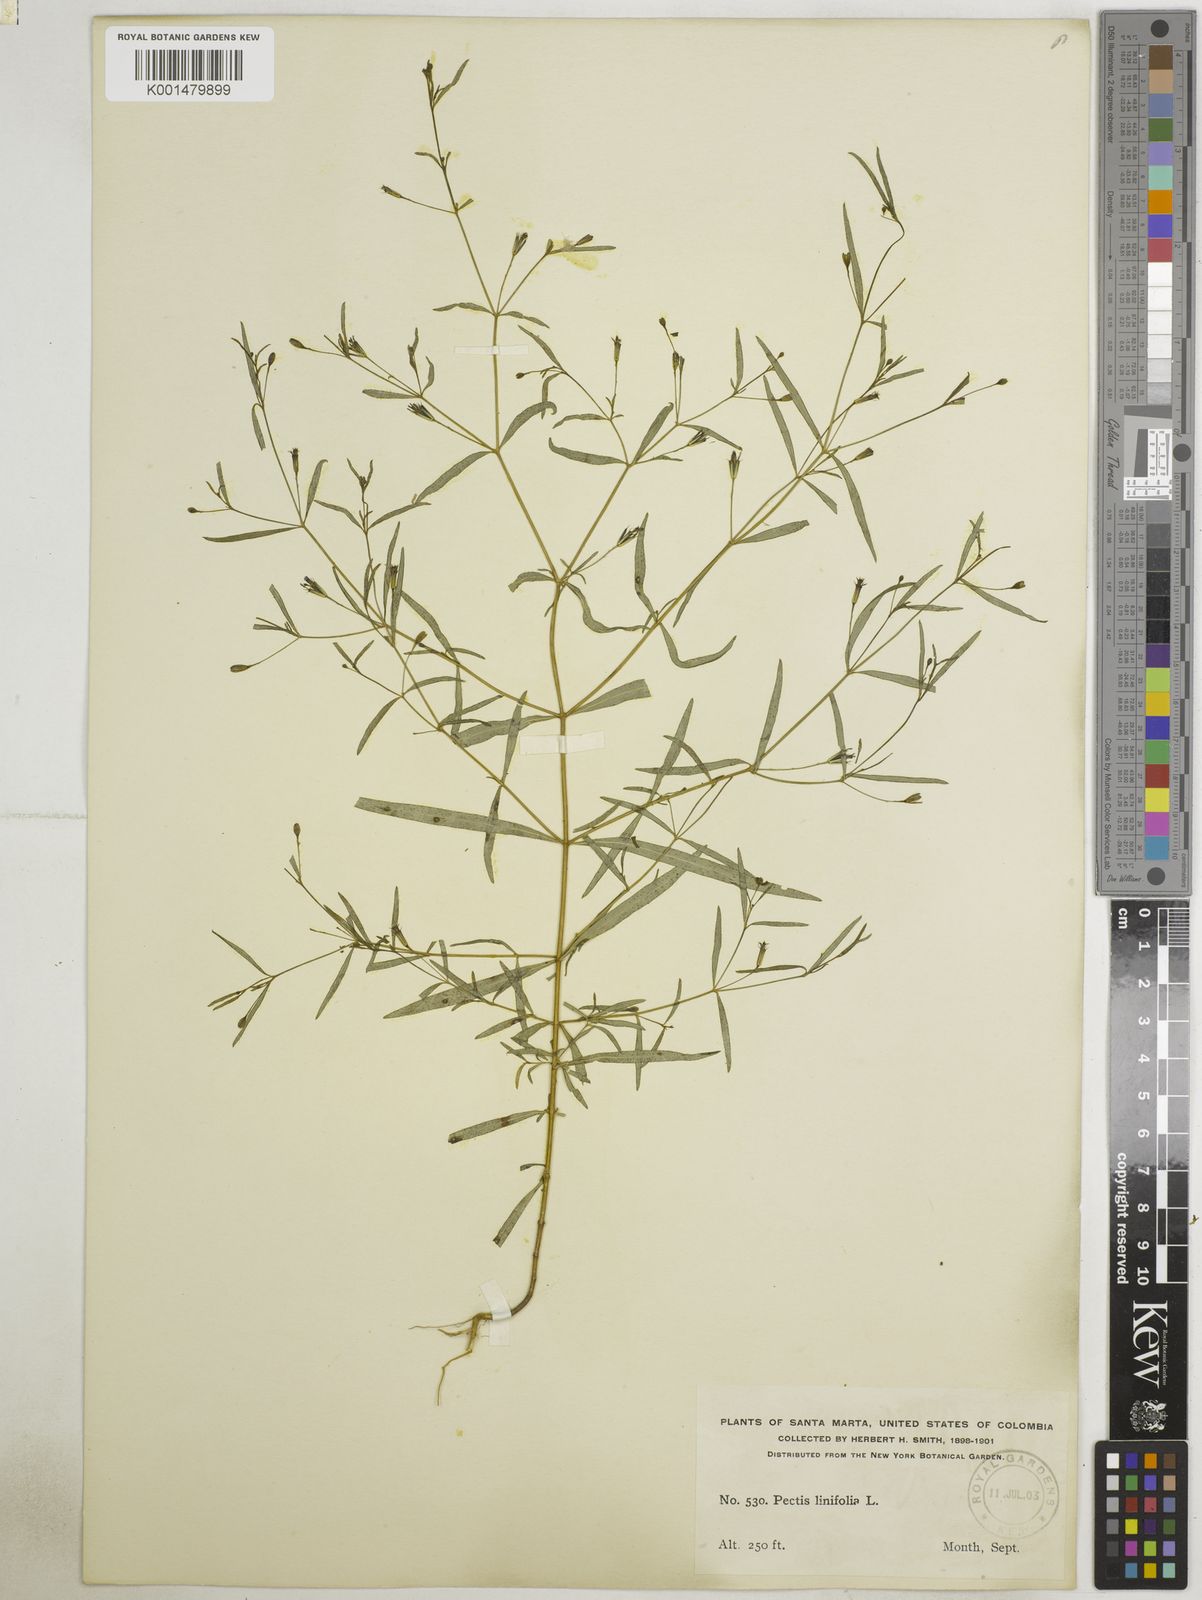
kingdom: Plantae
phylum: Tracheophyta
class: Magnoliopsida
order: Asterales
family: Asteraceae
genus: Pectis
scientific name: Pectis linifolia
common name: Romero macho
